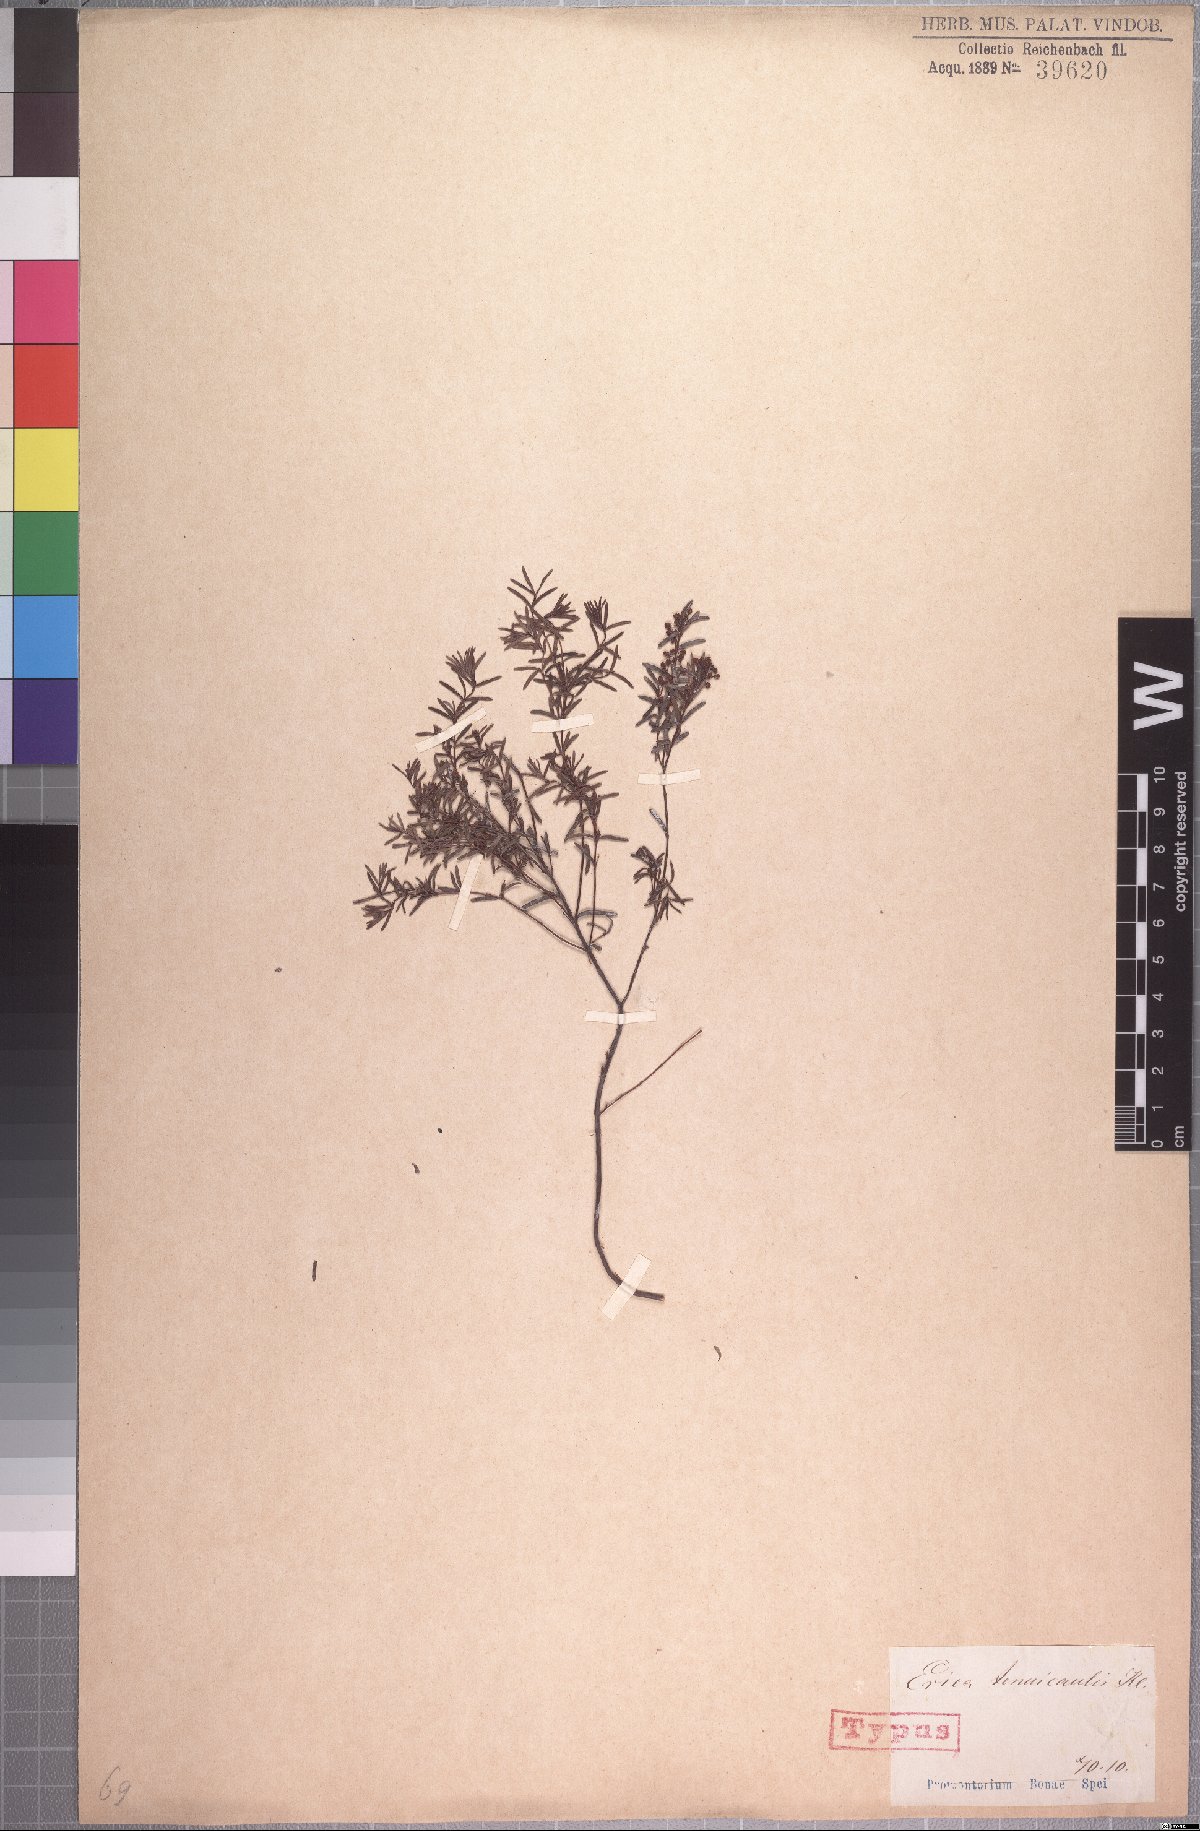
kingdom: Plantae
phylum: Tracheophyta
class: Magnoliopsida
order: Ericales
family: Ericaceae
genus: Erica
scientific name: Erica tenuicaulis
